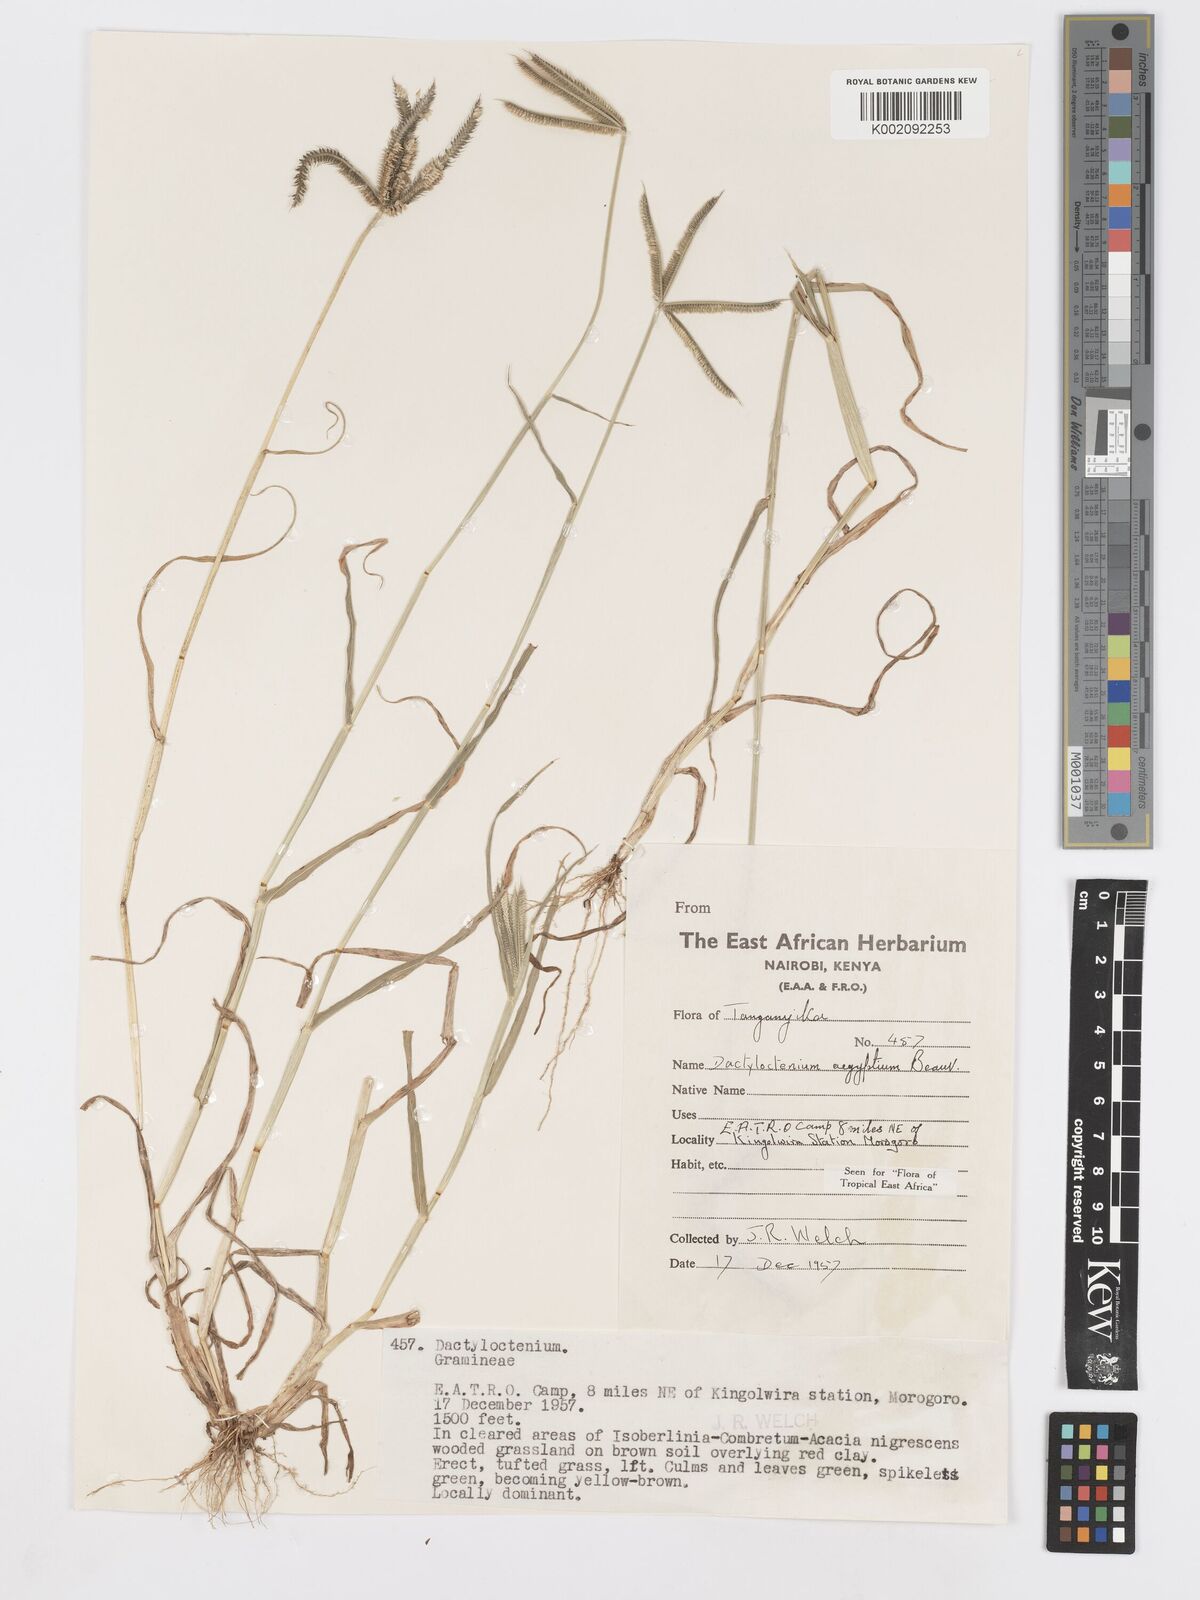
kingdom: Plantae
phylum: Tracheophyta
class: Liliopsida
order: Poales
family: Poaceae
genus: Dactyloctenium
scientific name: Dactyloctenium aegyptium
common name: Egyptian grass
